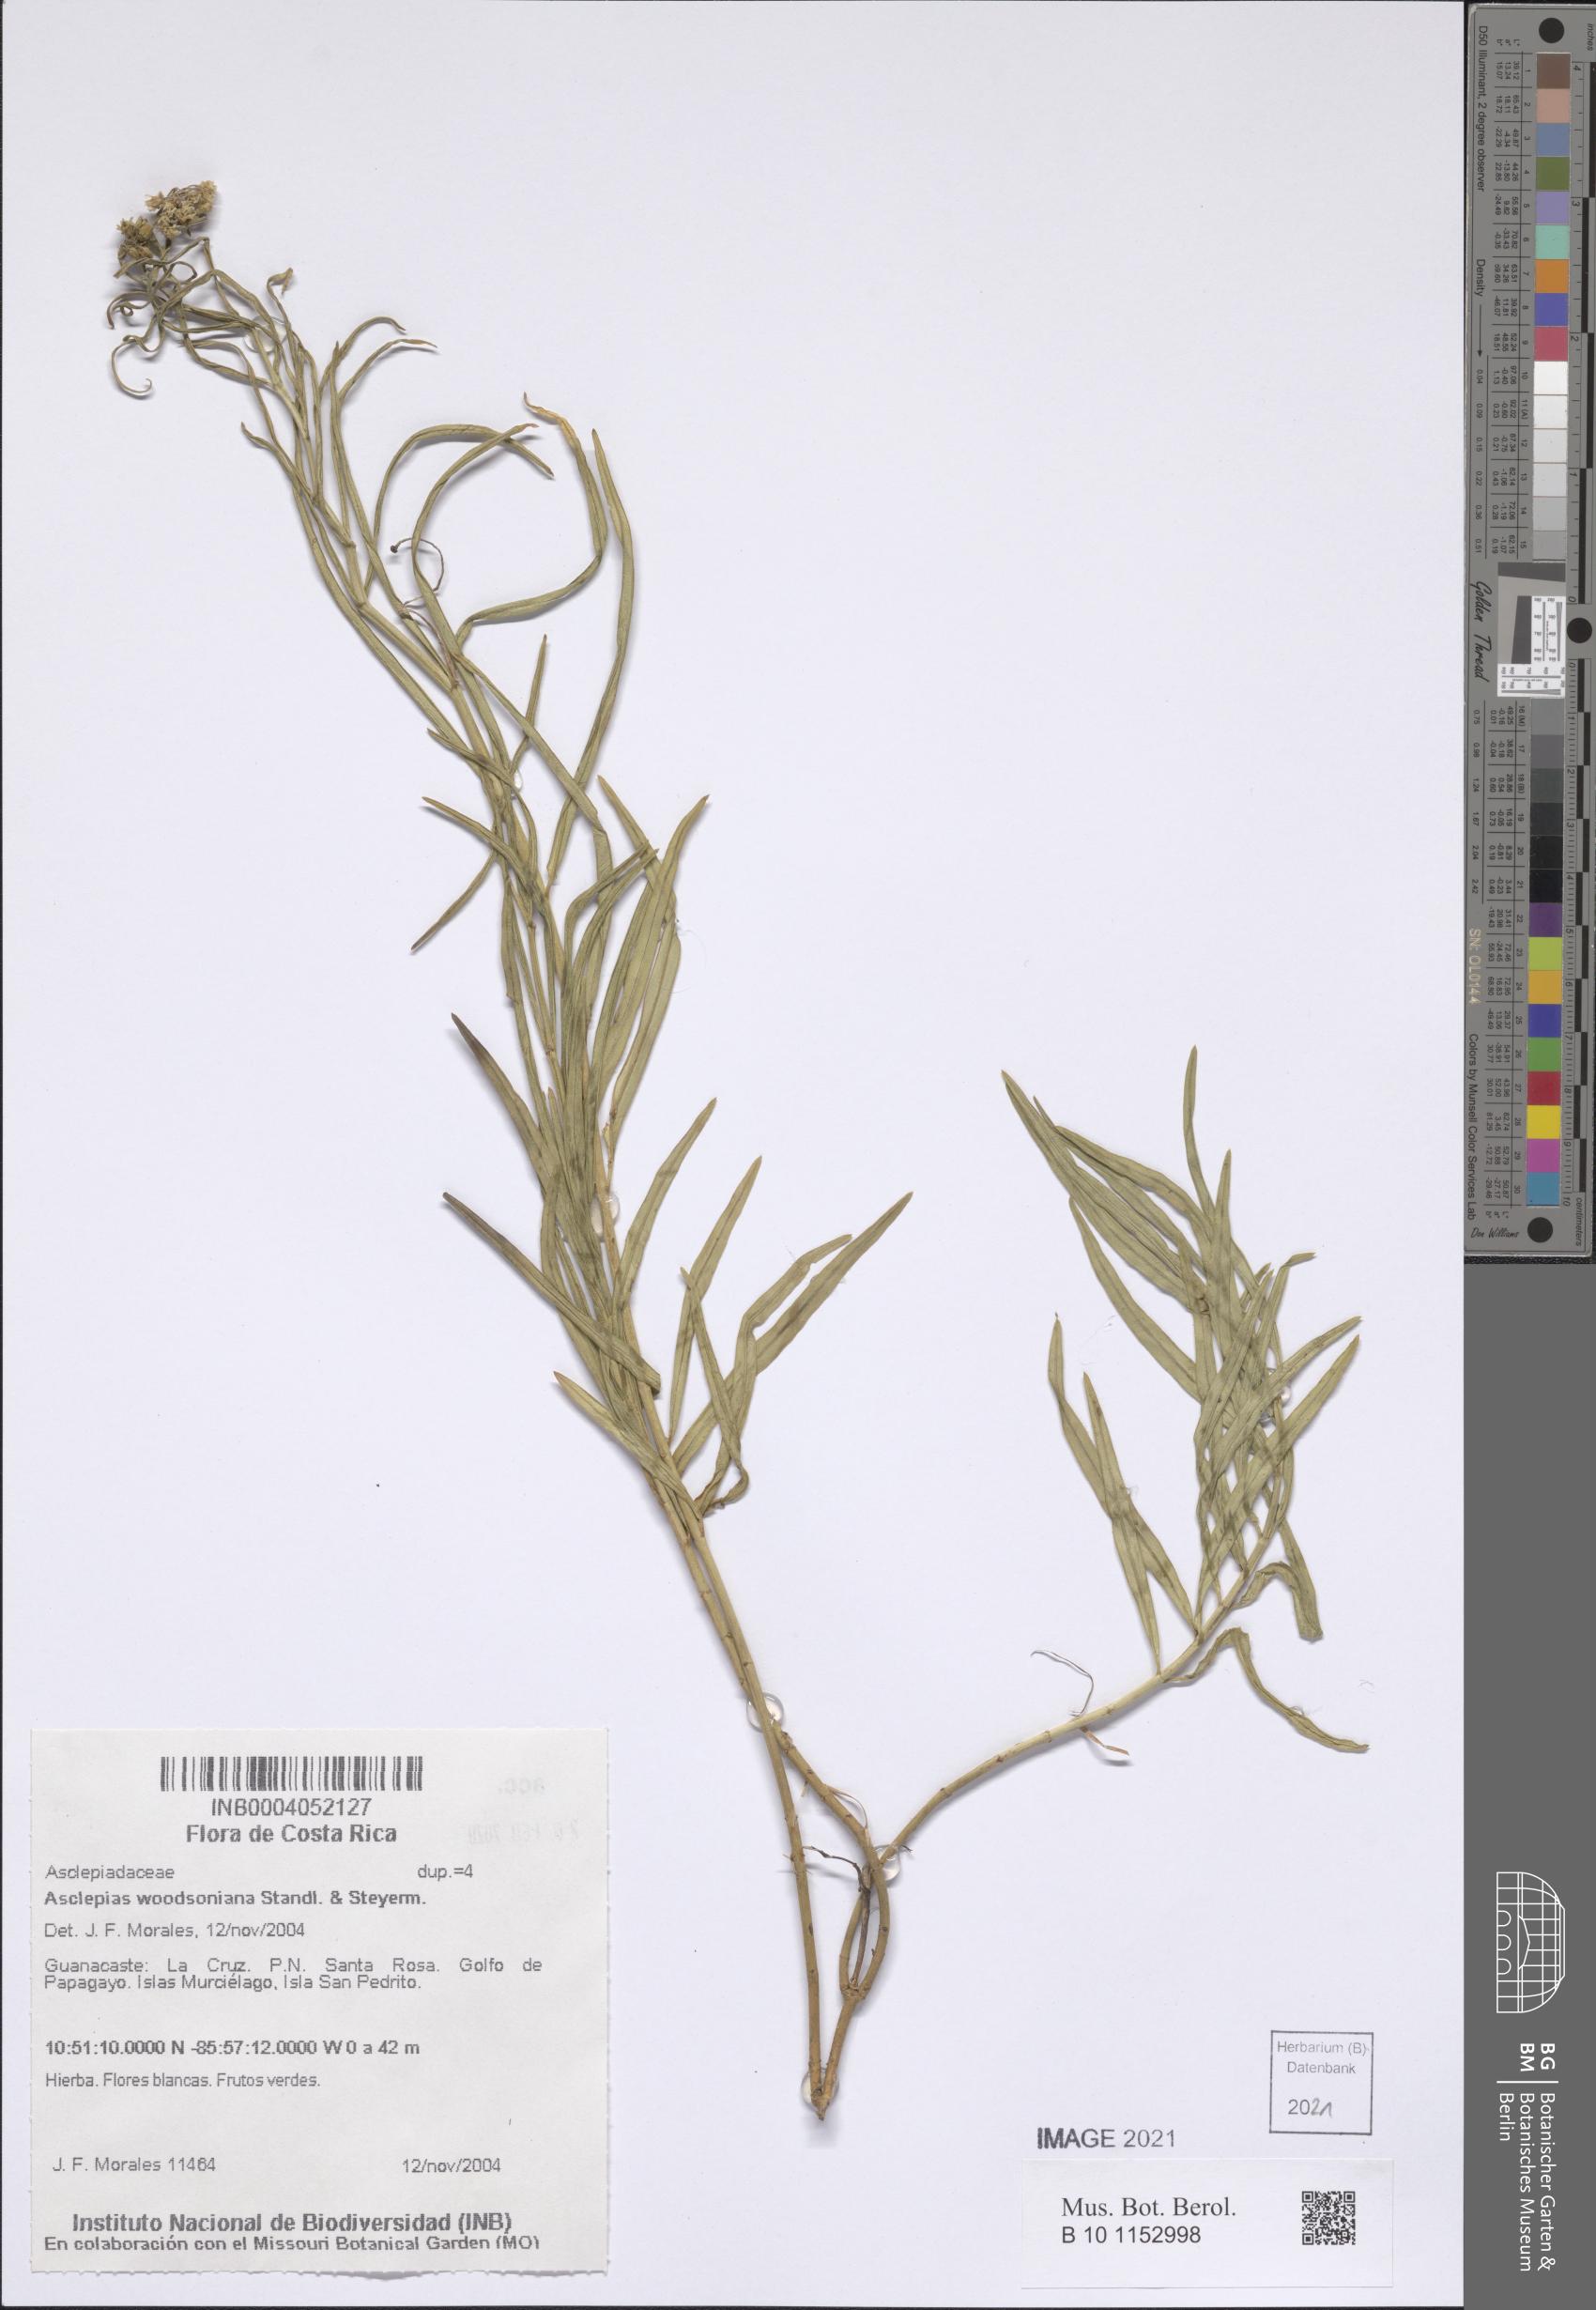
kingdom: Plantae
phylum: Tracheophyta
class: Magnoliopsida
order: Gentianales
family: Apocynaceae
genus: Asclepias
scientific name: Asclepias woodsoniana
